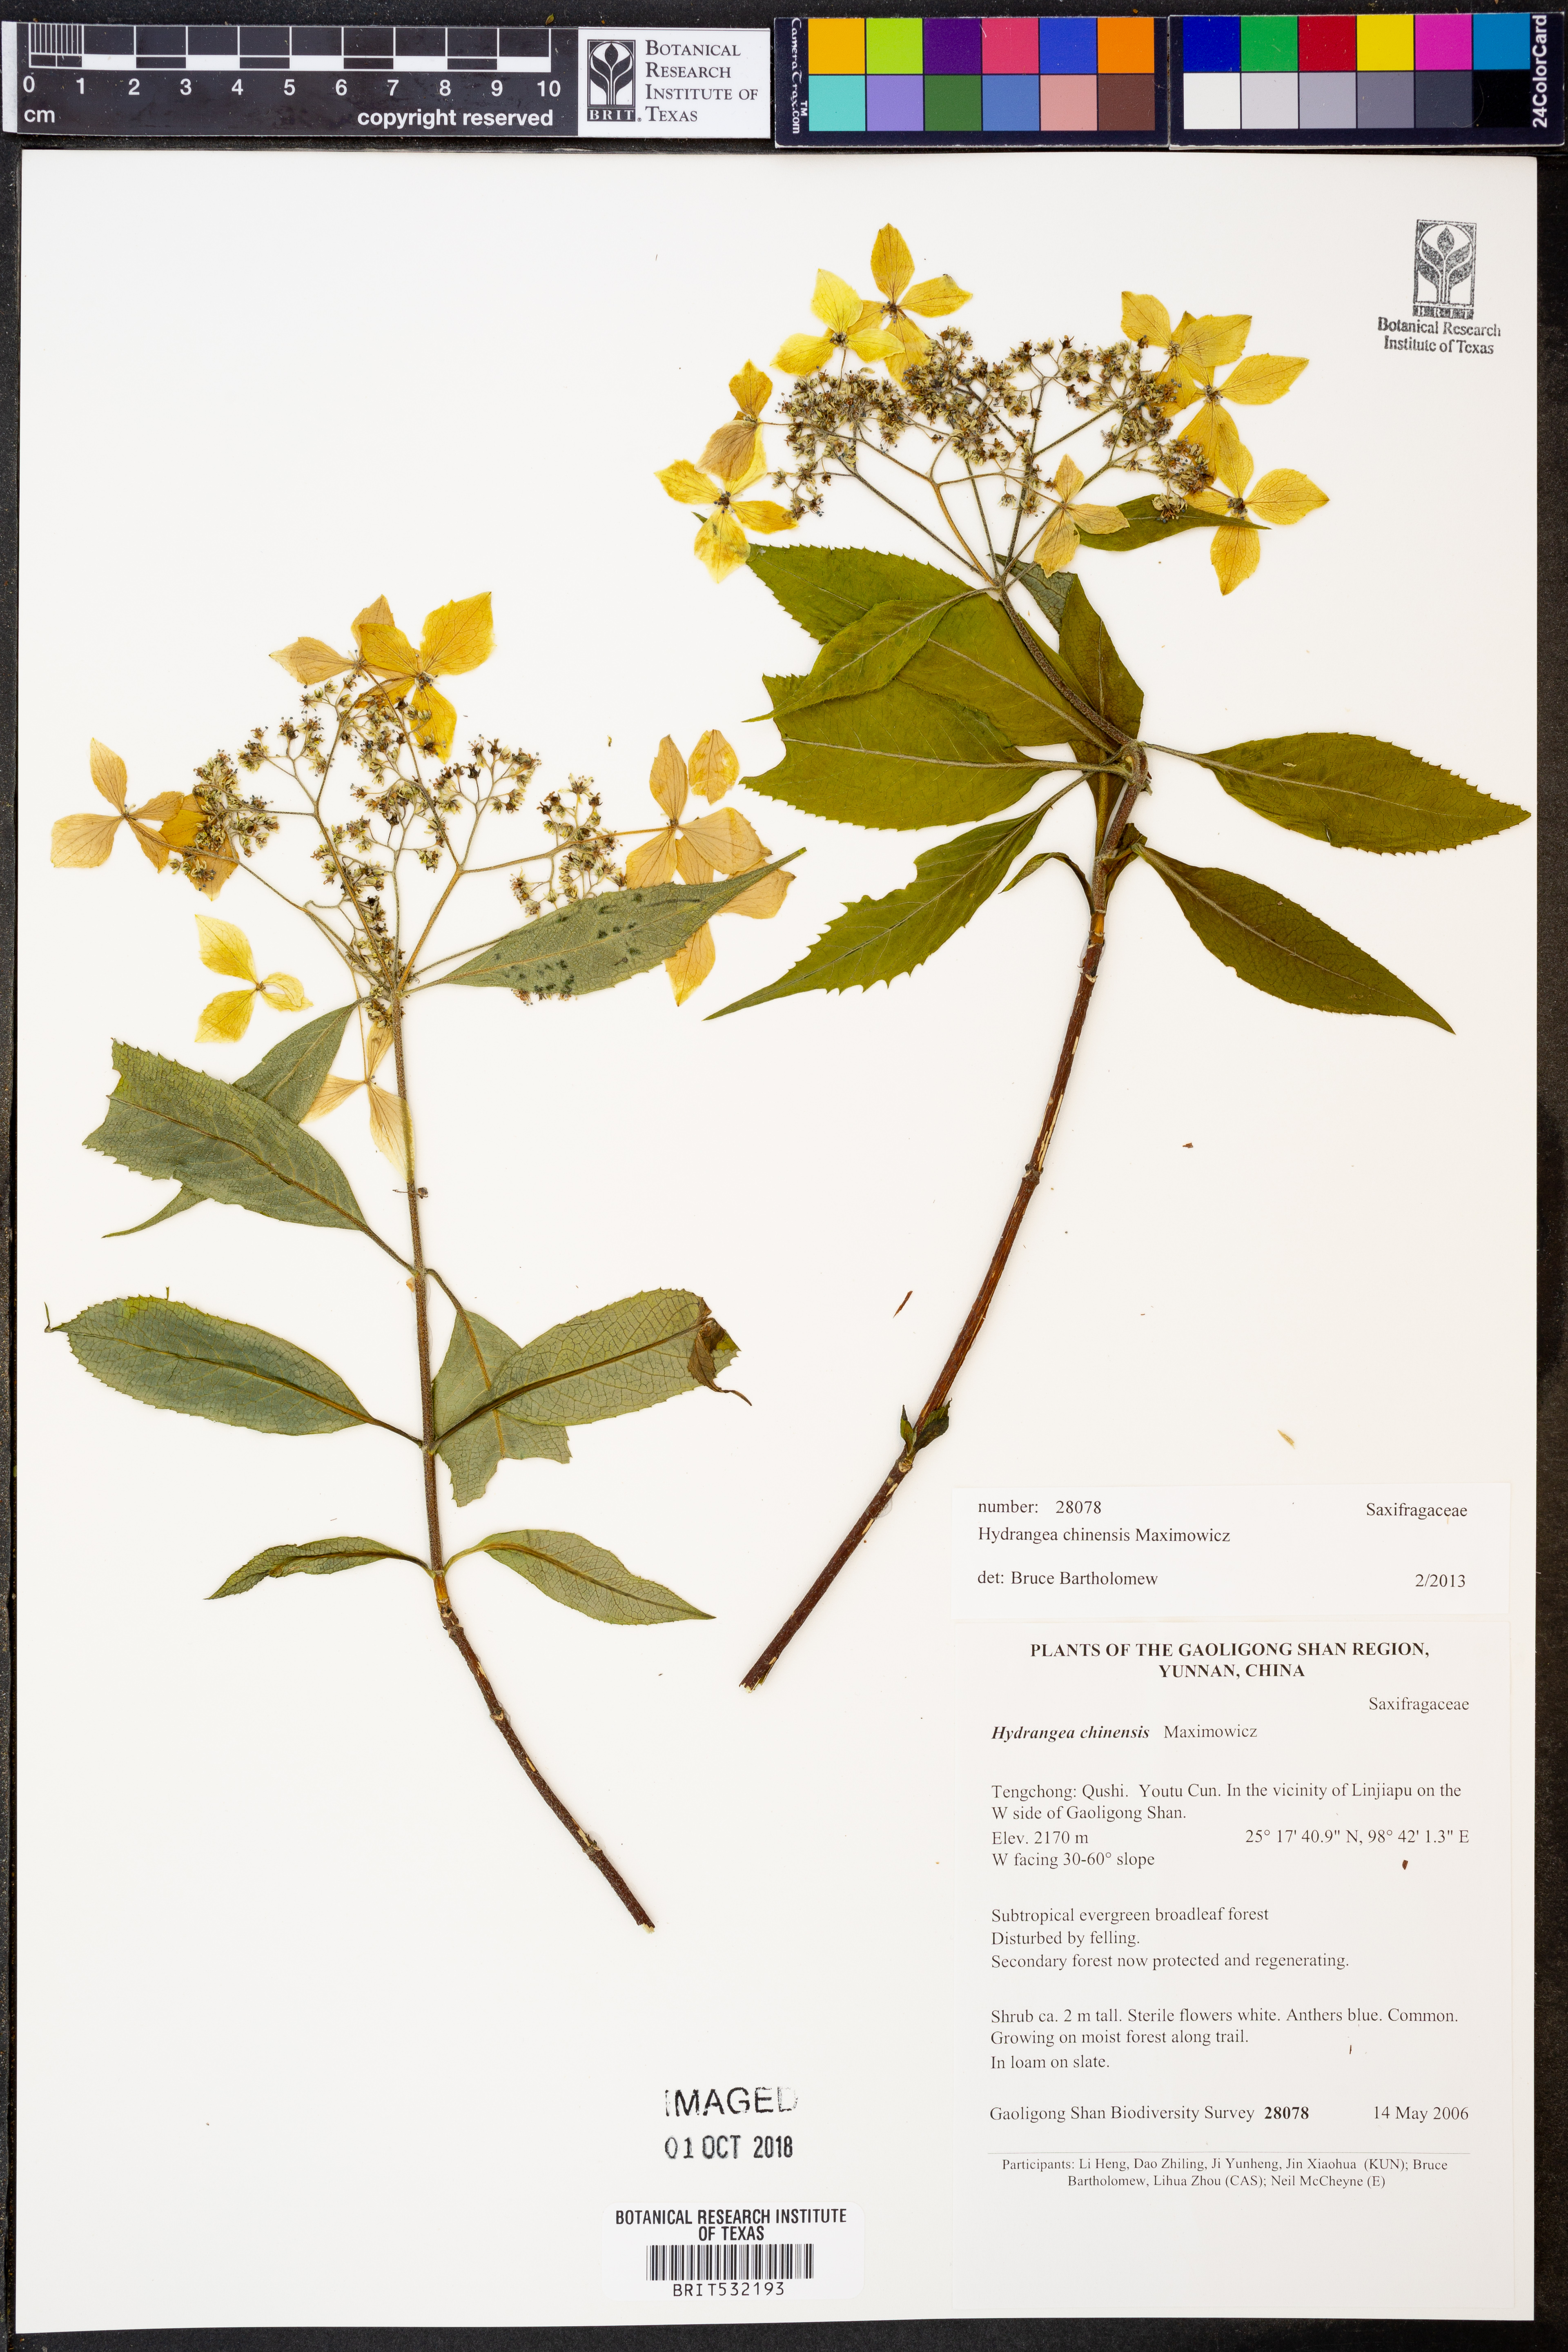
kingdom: Plantae
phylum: Tracheophyta
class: Magnoliopsida
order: Cornales
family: Hydrangeaceae
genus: Hydrangea
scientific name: Hydrangea chinensis
